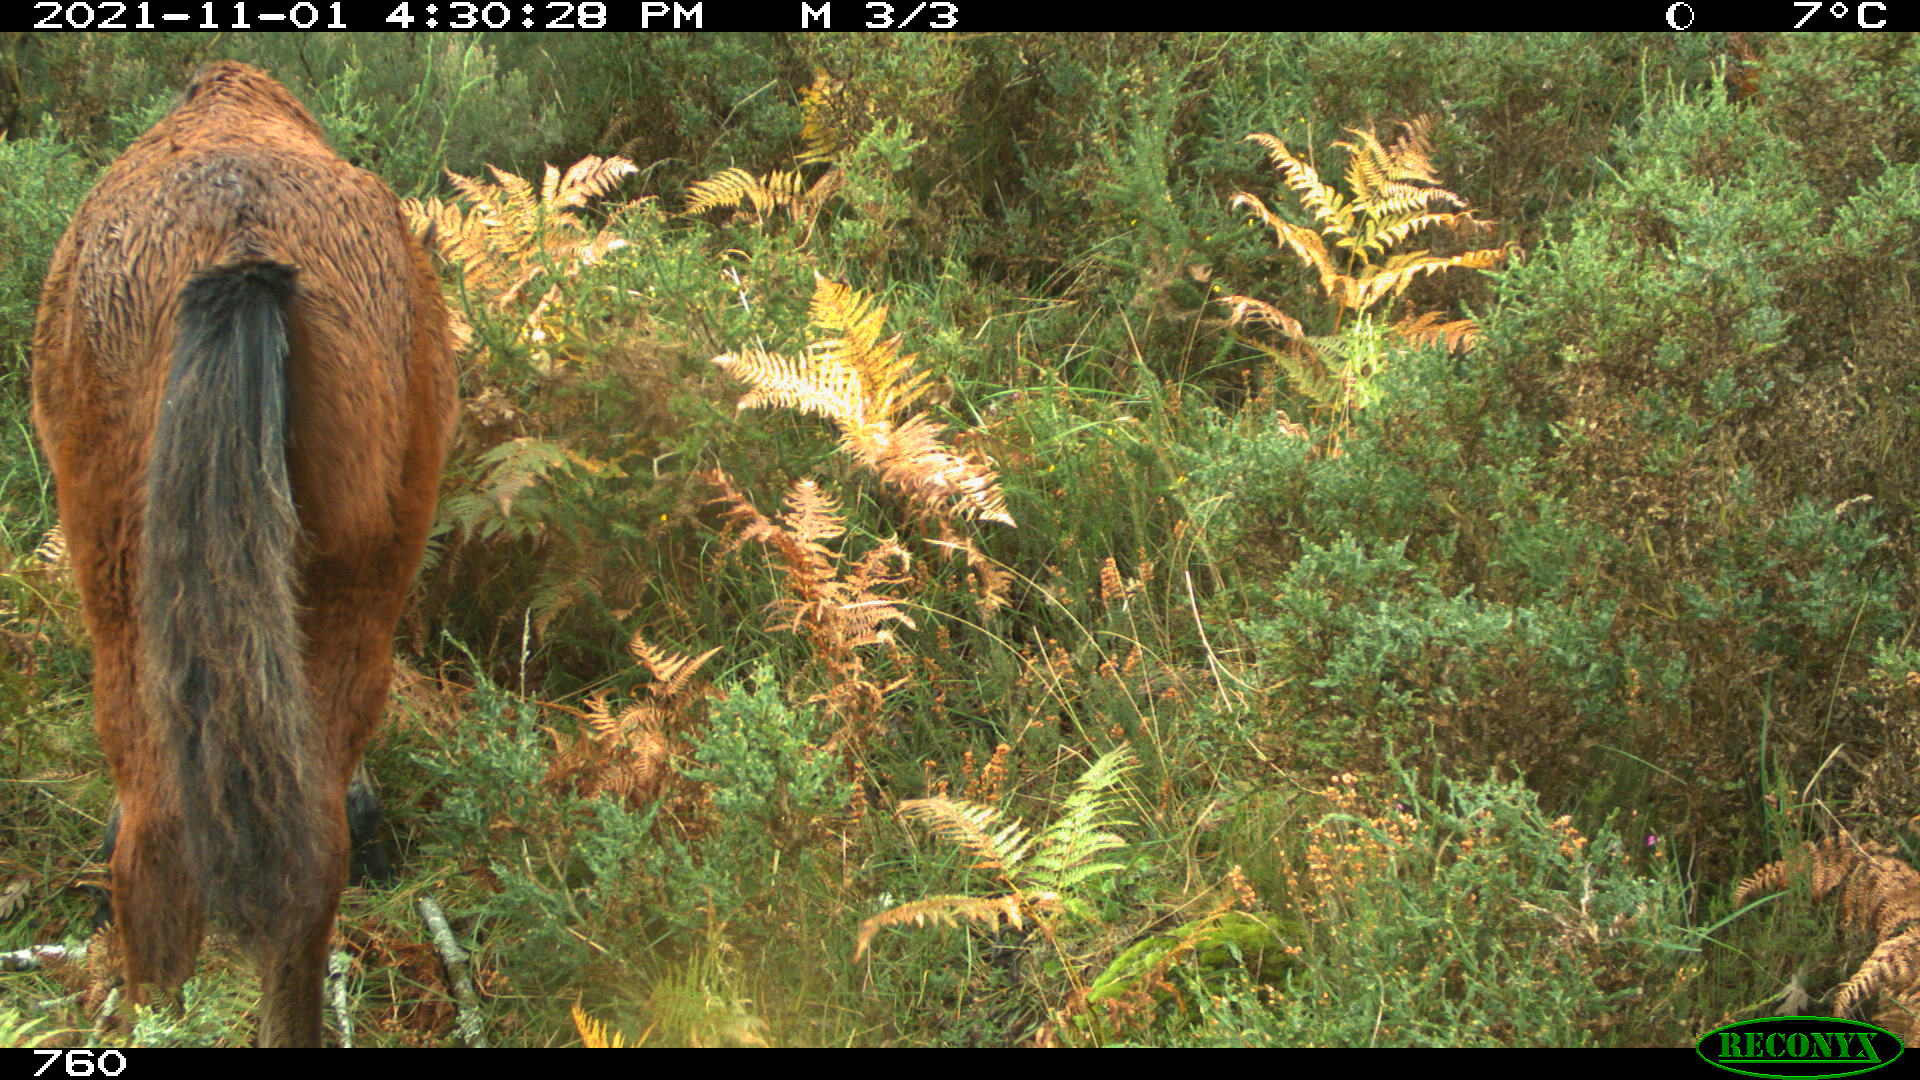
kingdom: Animalia
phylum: Chordata
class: Mammalia
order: Perissodactyla
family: Equidae
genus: Equus
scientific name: Equus caballus
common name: Horse
